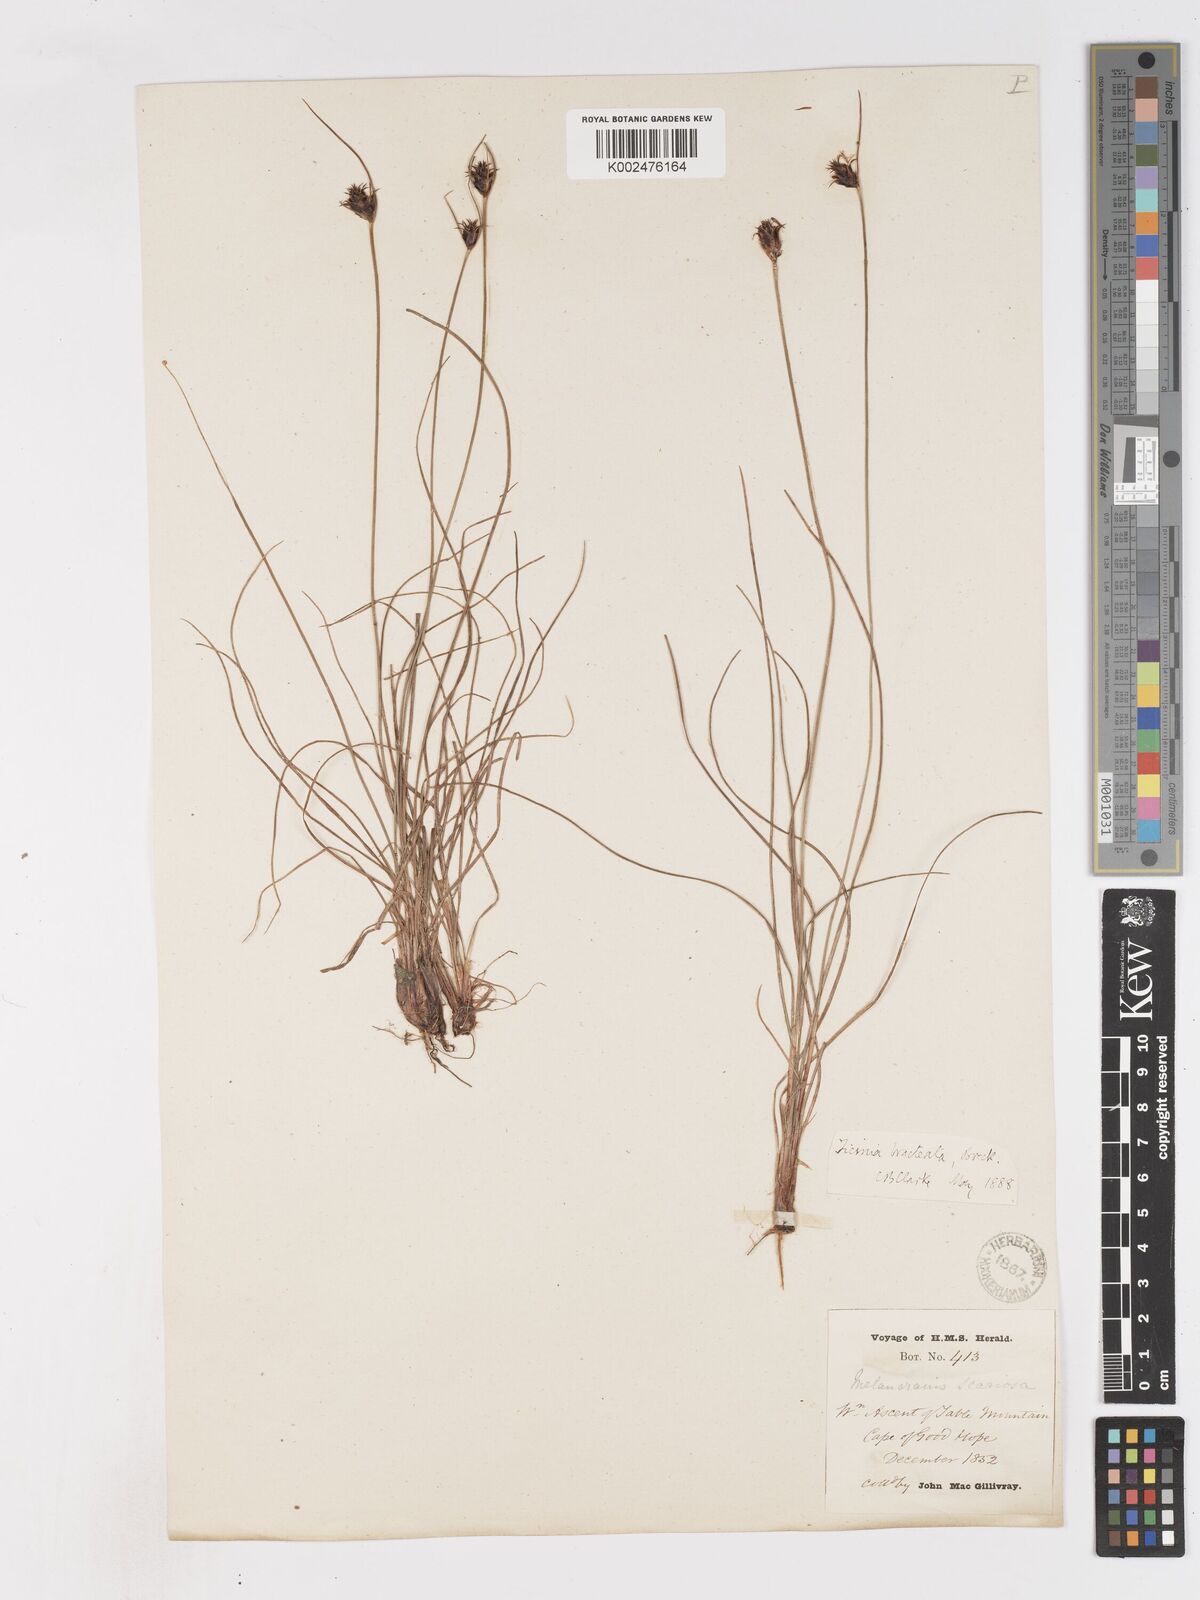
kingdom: Plantae
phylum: Tracheophyta
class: Liliopsida
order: Poales
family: Cyperaceae
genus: Ficinia
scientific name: Ficinia nigrescens
